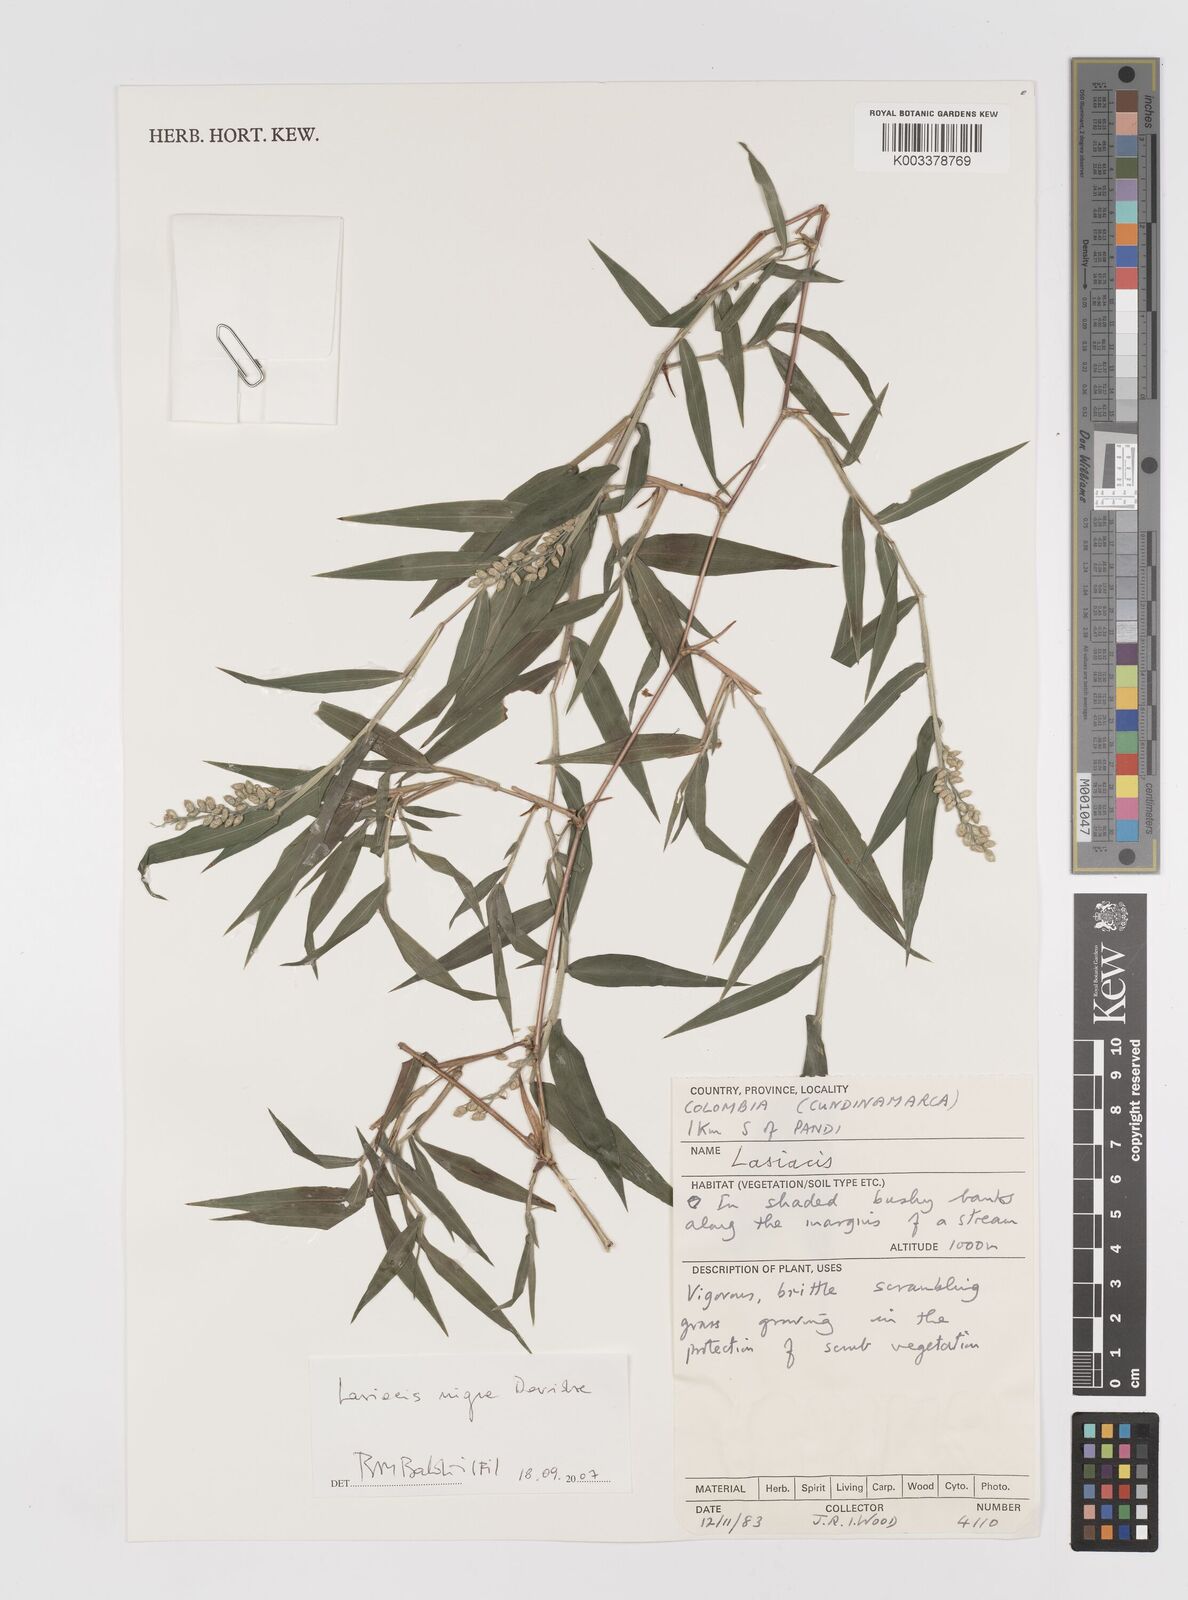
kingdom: Plantae
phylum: Tracheophyta
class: Liliopsida
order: Poales
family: Poaceae
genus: Lasiacis
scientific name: Lasiacis rugelii
